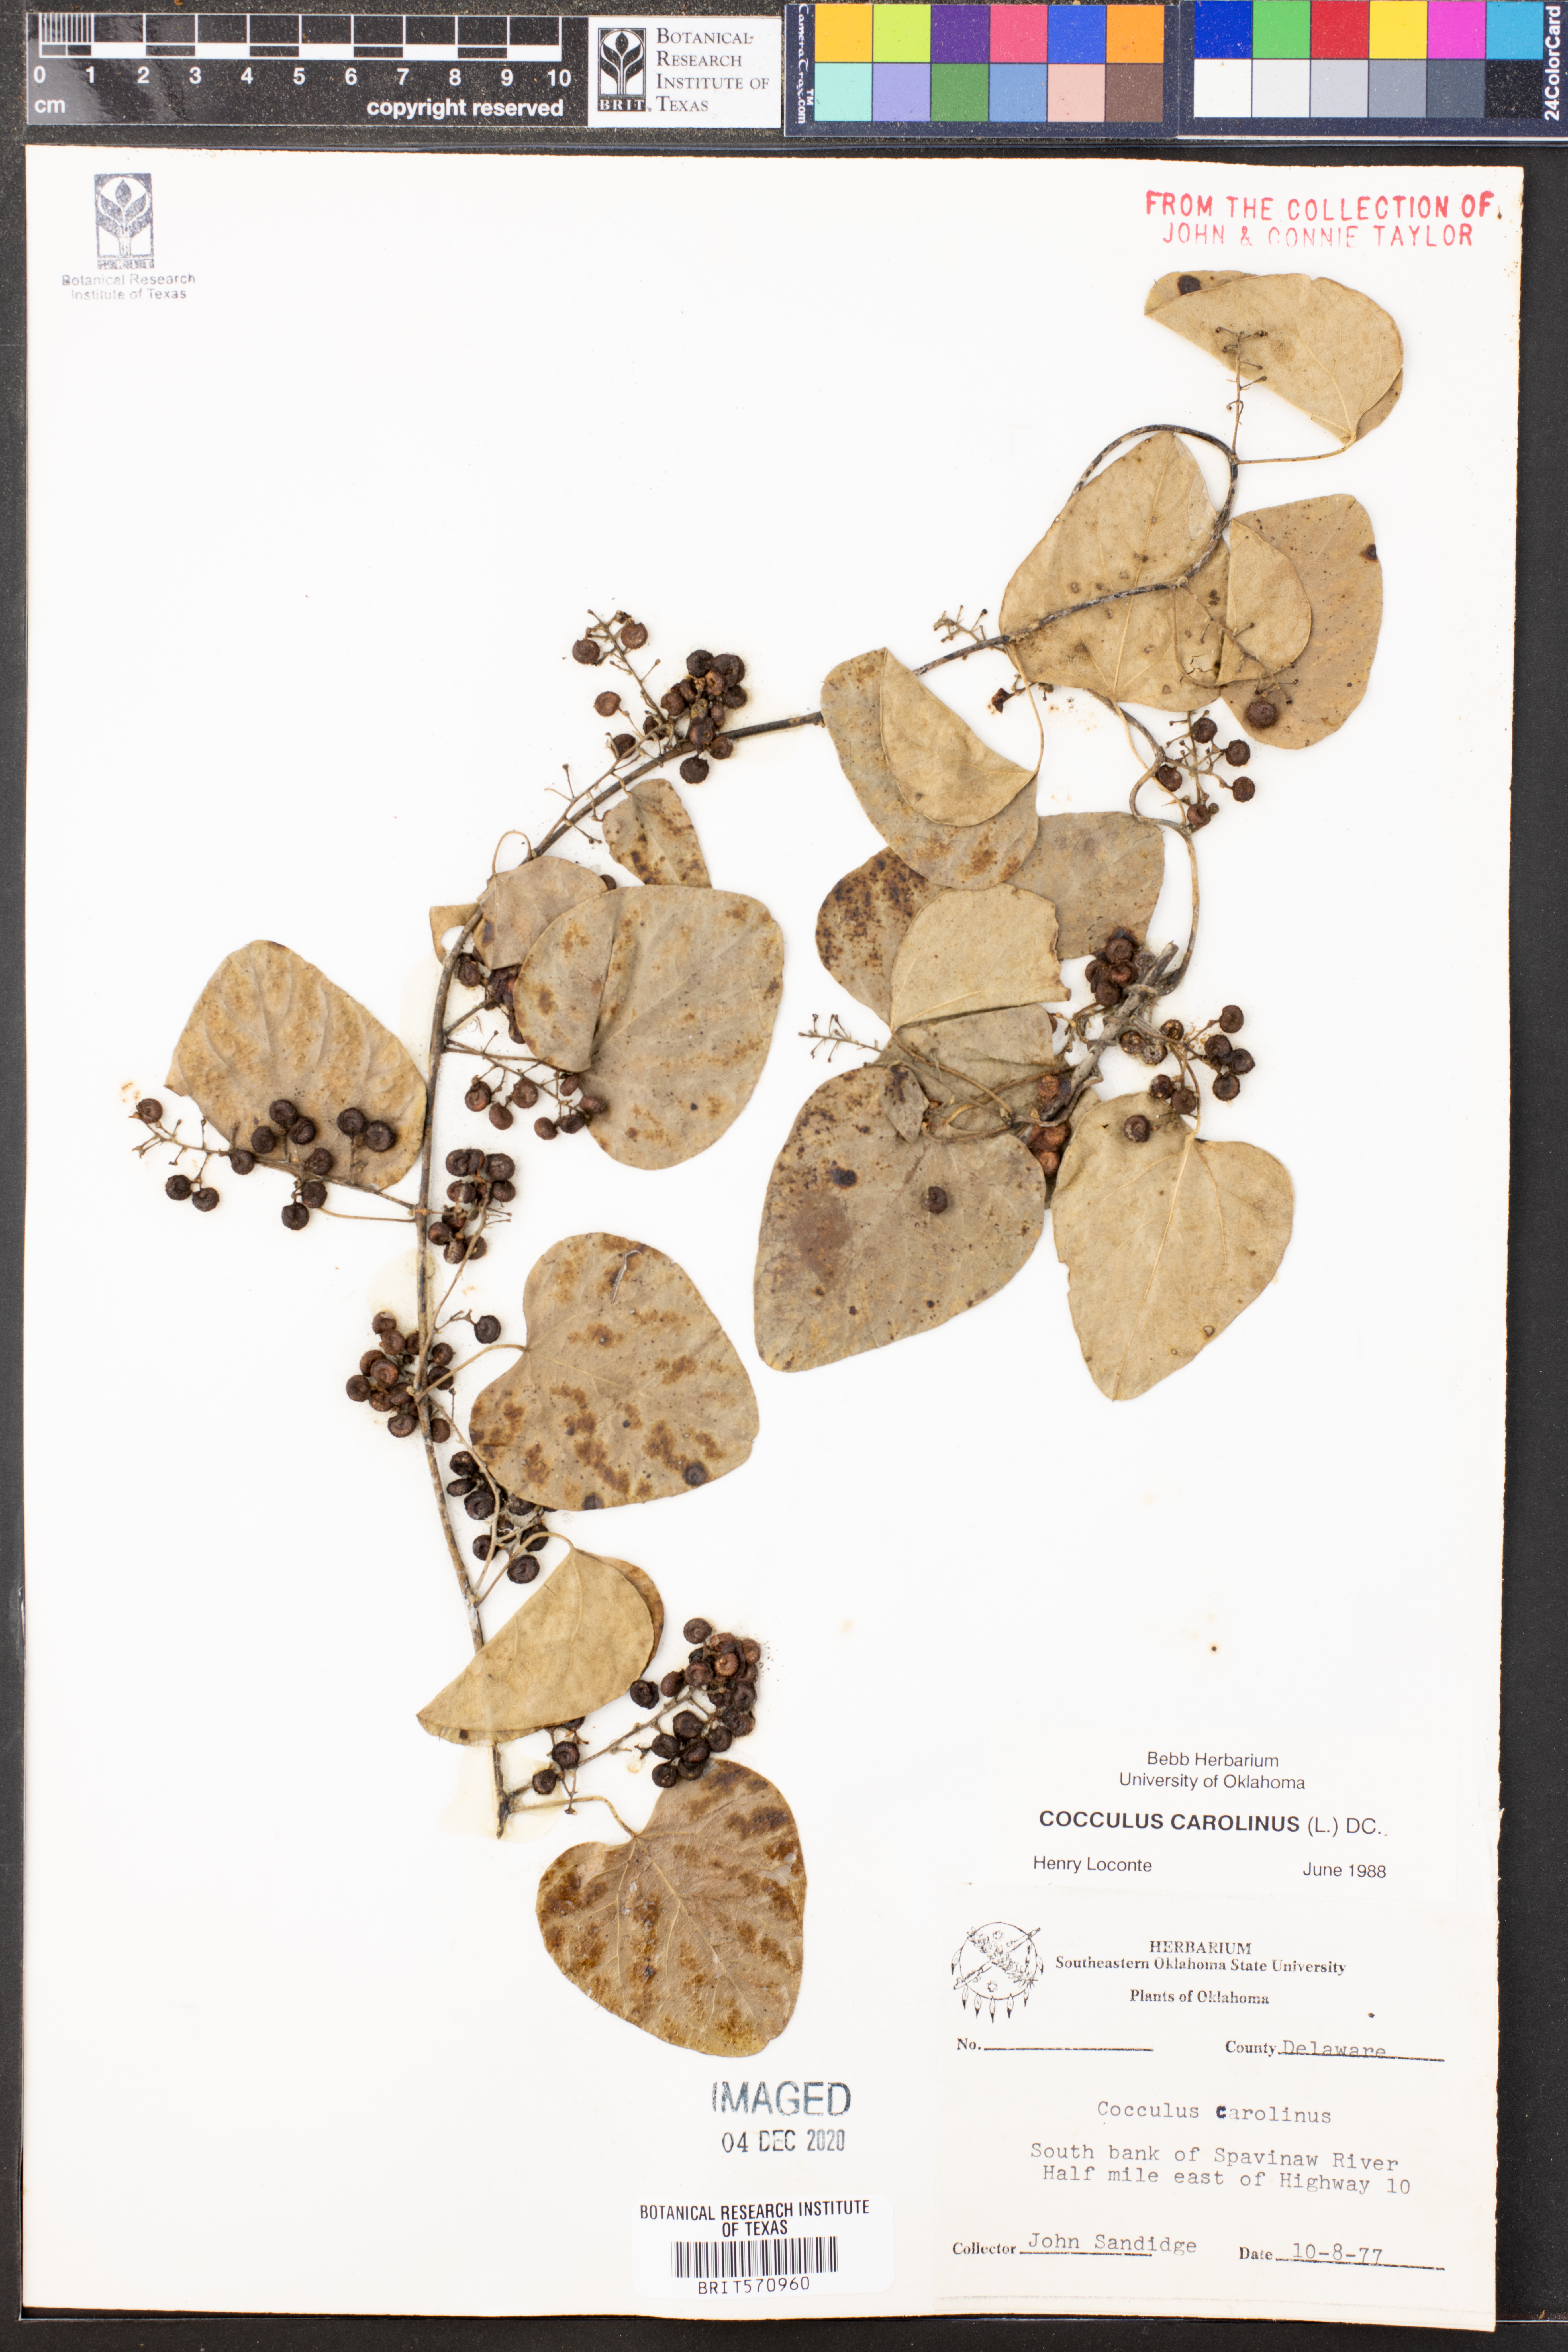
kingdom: Plantae
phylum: Tracheophyta
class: Magnoliopsida
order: Ranunculales
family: Menispermaceae
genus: Cocculus
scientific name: Cocculus carolinus
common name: Carolina moonseed
